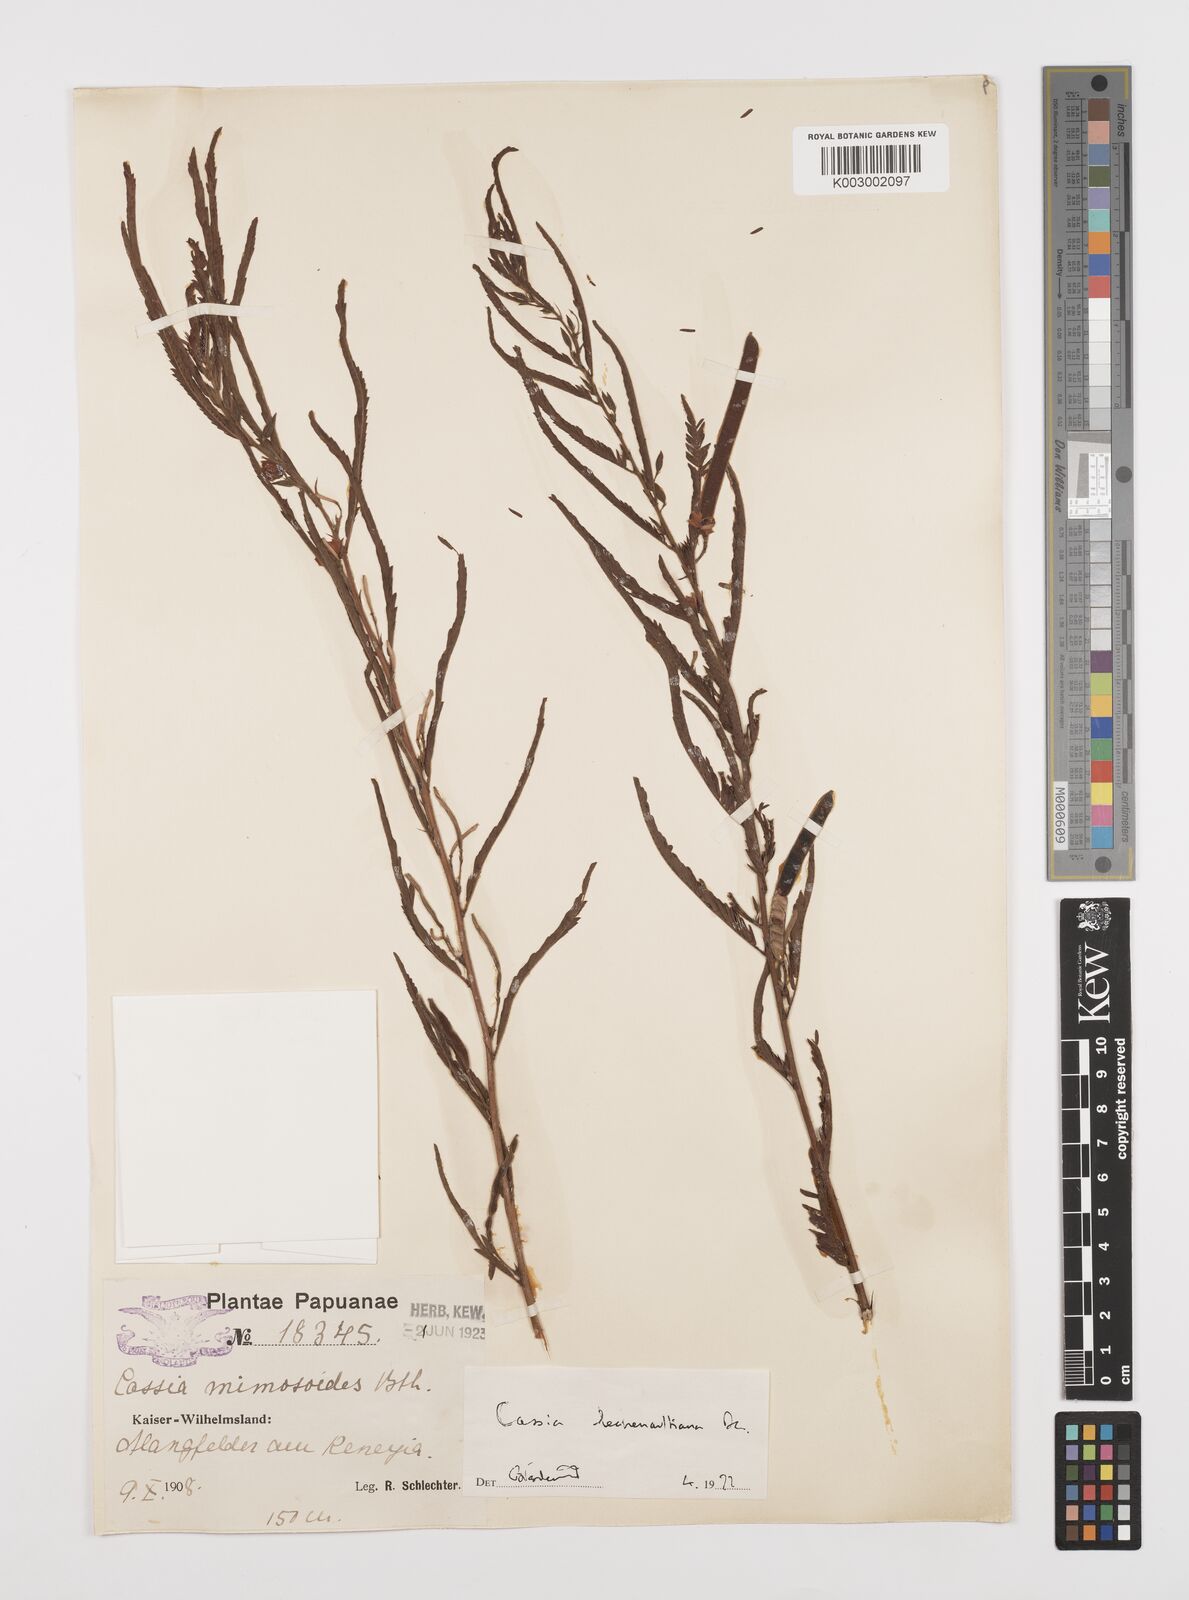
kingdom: Plantae
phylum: Tracheophyta
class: Magnoliopsida
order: Fabales
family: Fabaceae
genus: Chamaecrista
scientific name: Chamaecrista mimosoides
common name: Fish-bone cassia
